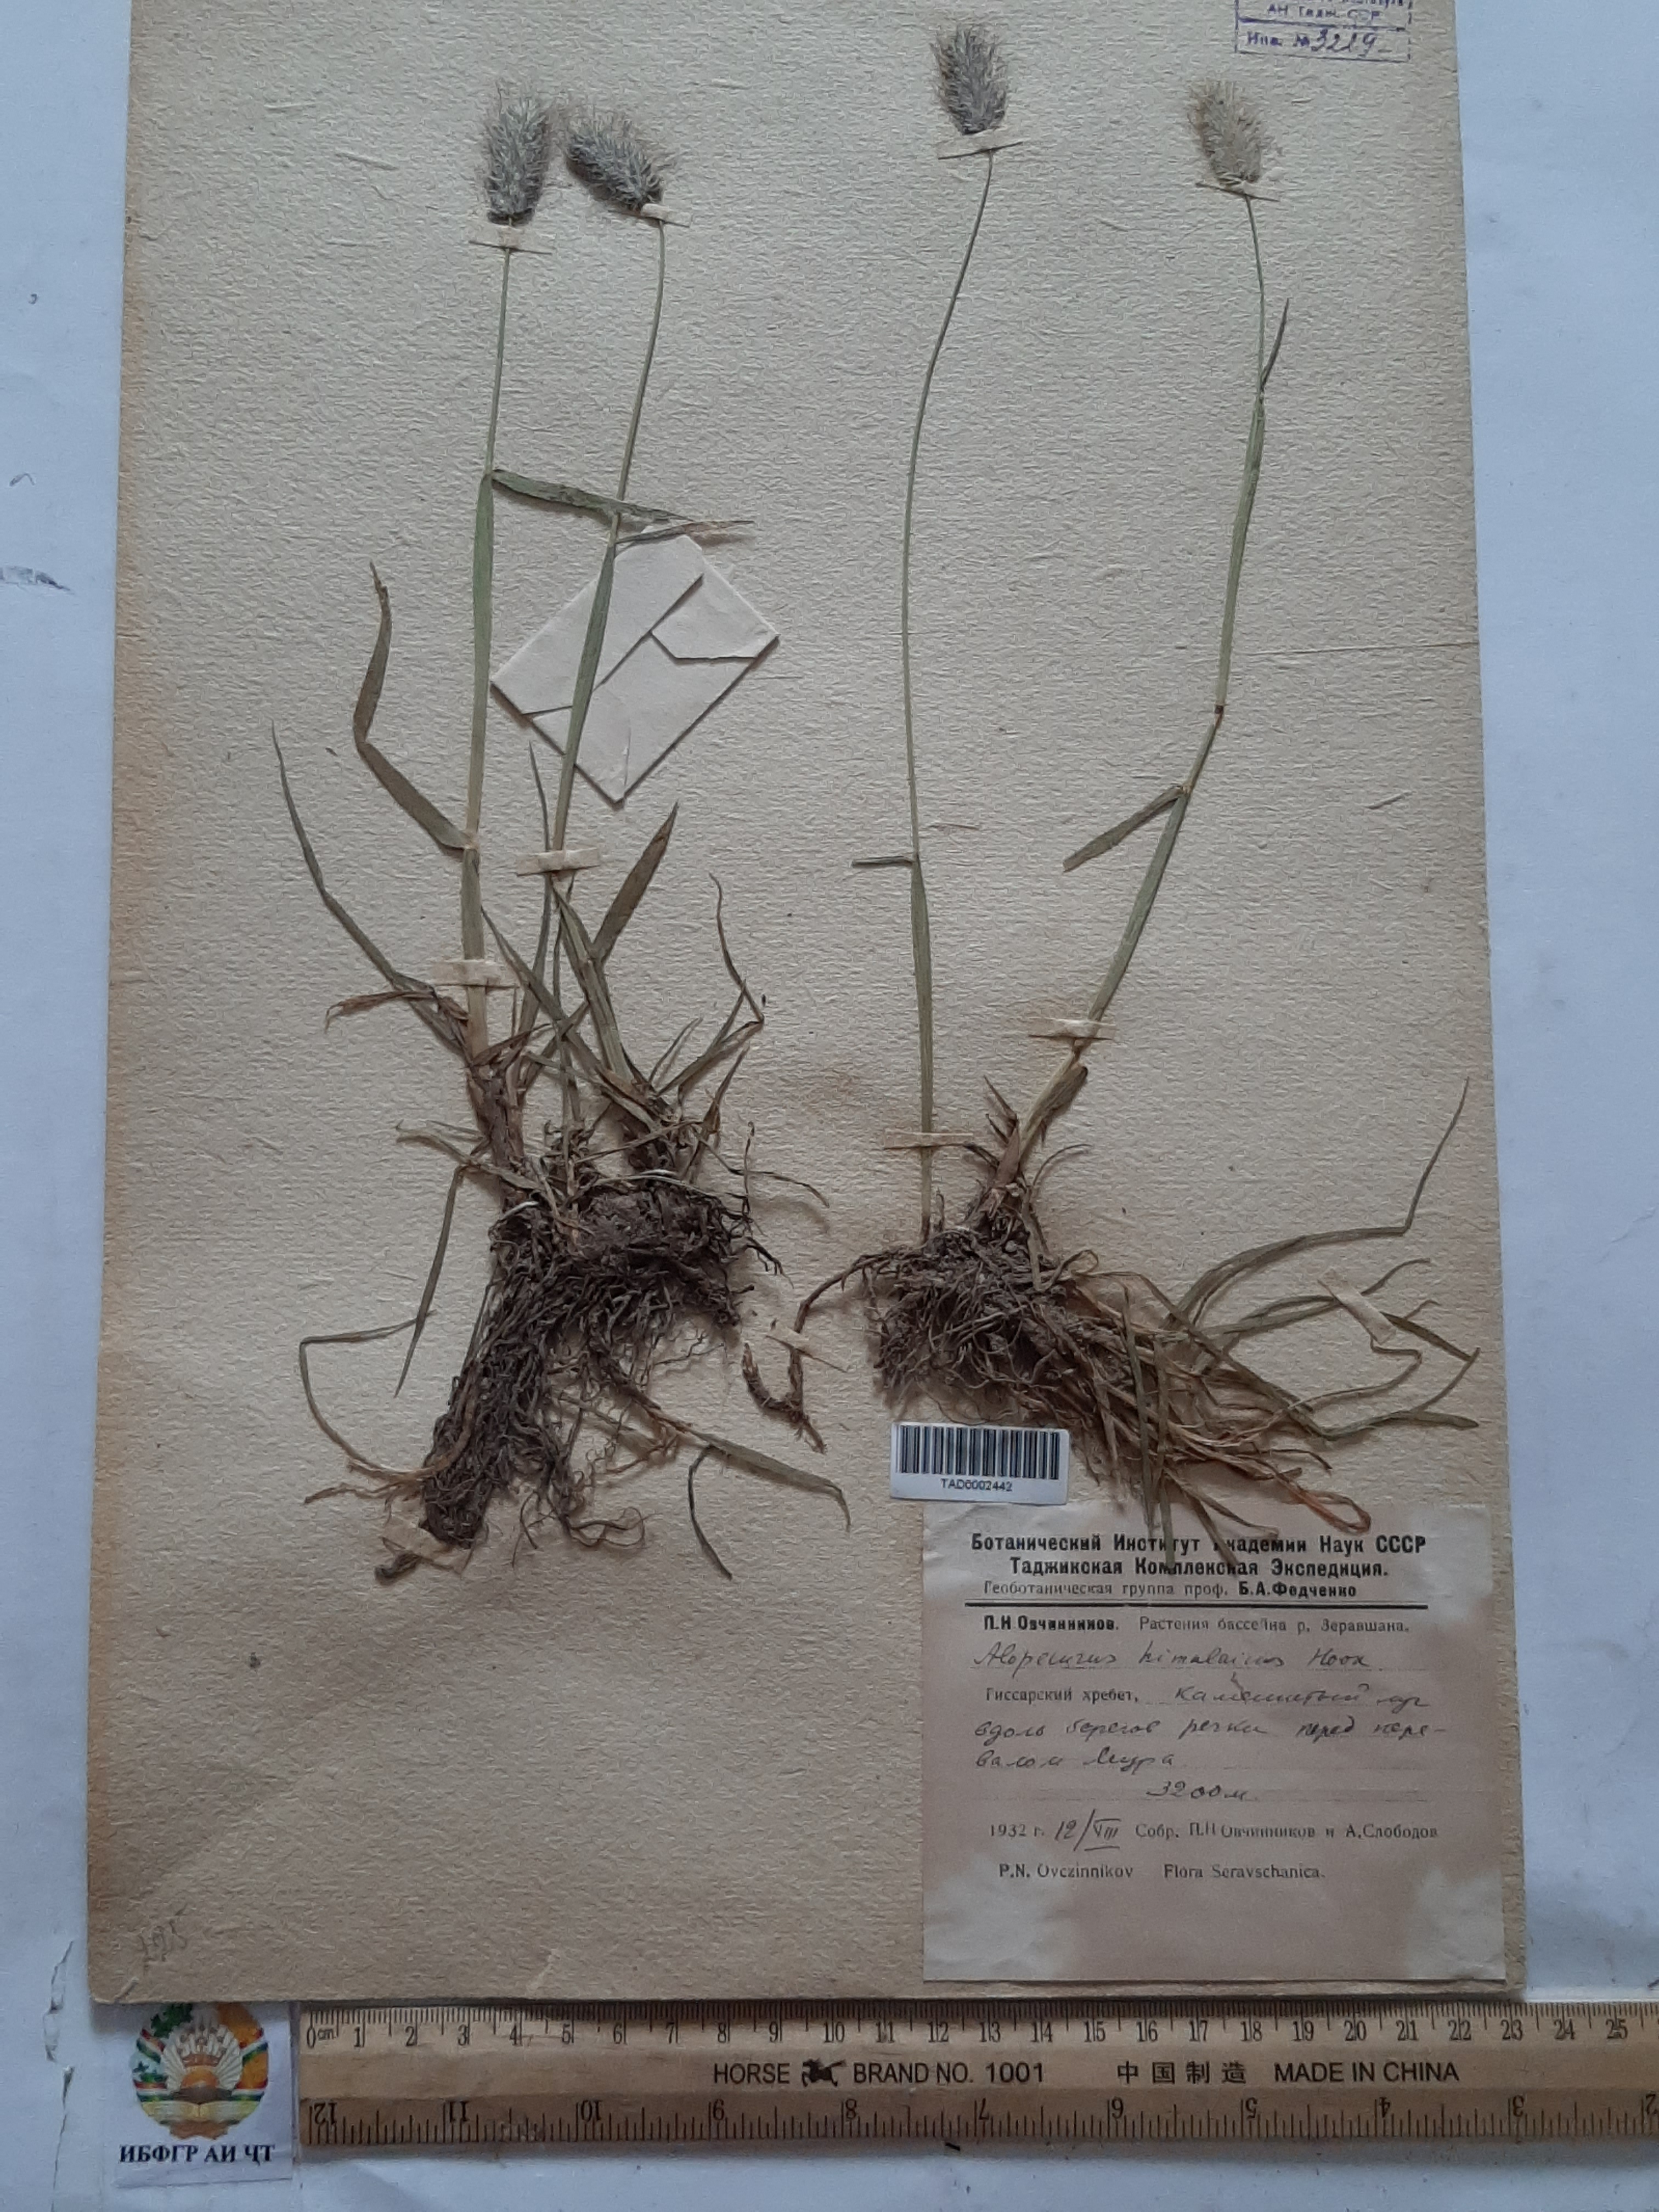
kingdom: Plantae
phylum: Tracheophyta
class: Liliopsida
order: Poales
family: Poaceae
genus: Alopecurus
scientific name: Alopecurus himalaicus
